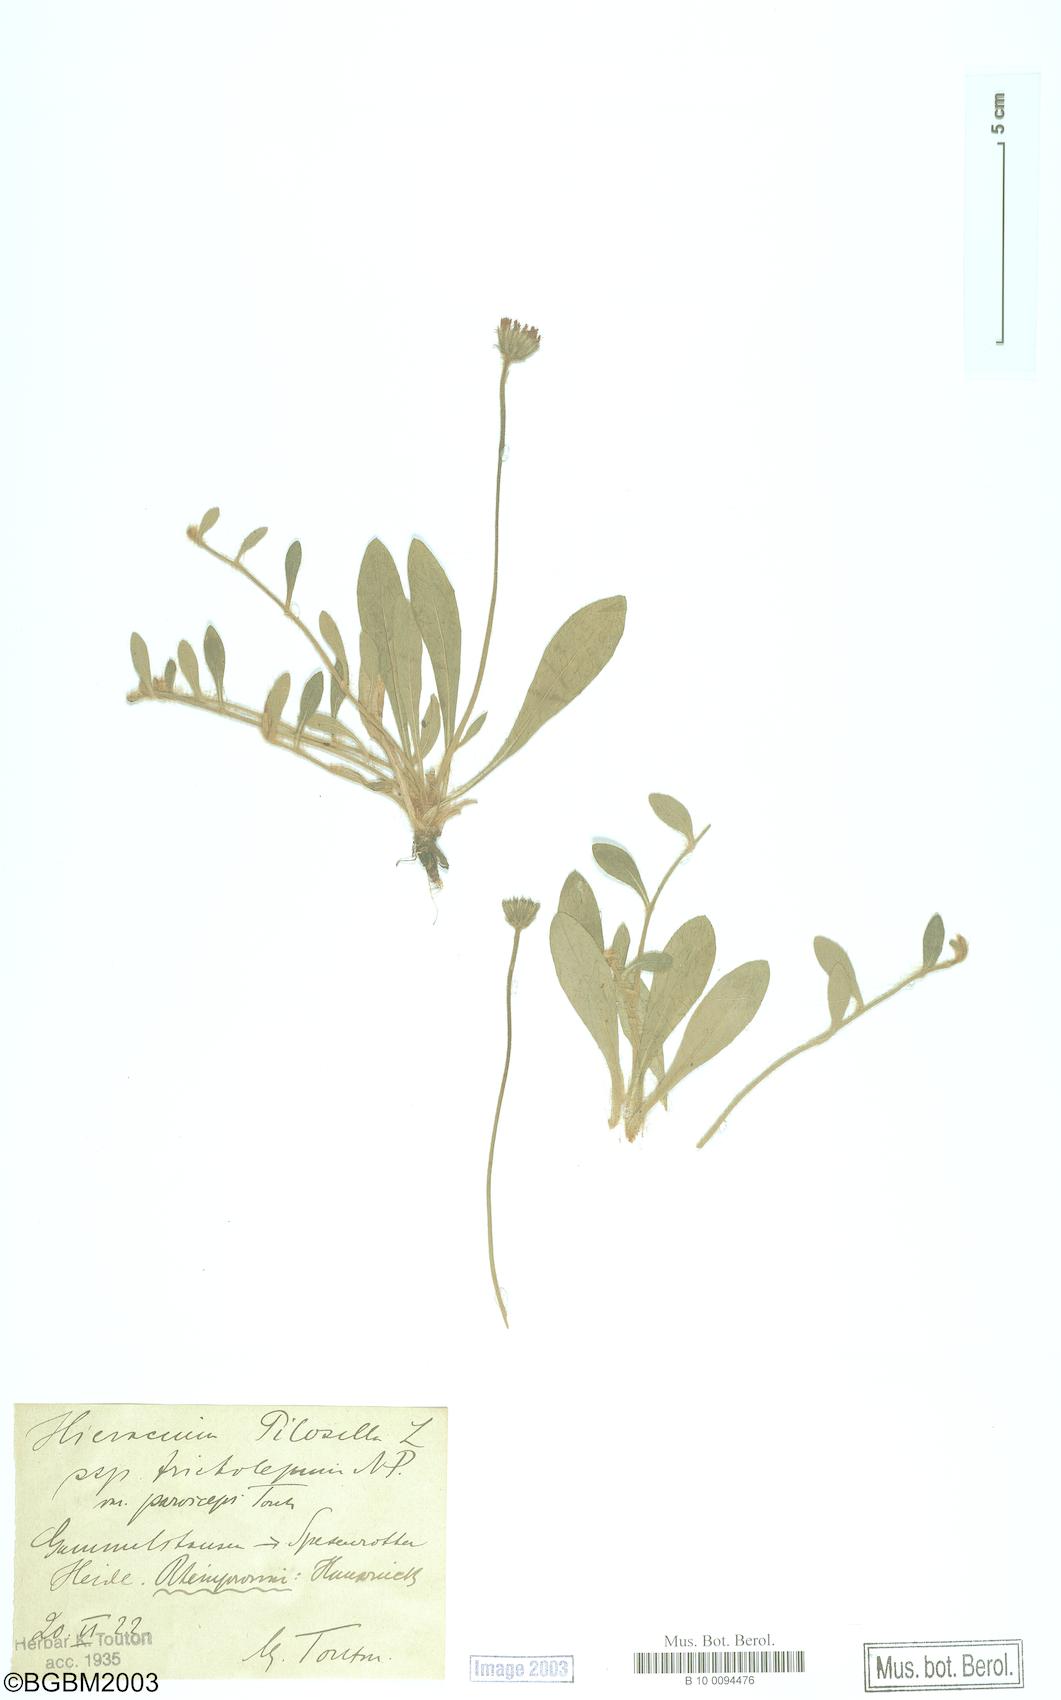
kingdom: Plantae
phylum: Tracheophyta
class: Magnoliopsida
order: Asterales
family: Asteraceae
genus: Pilosella
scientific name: Pilosella officinarum
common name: Mouse-ear hawkweed
